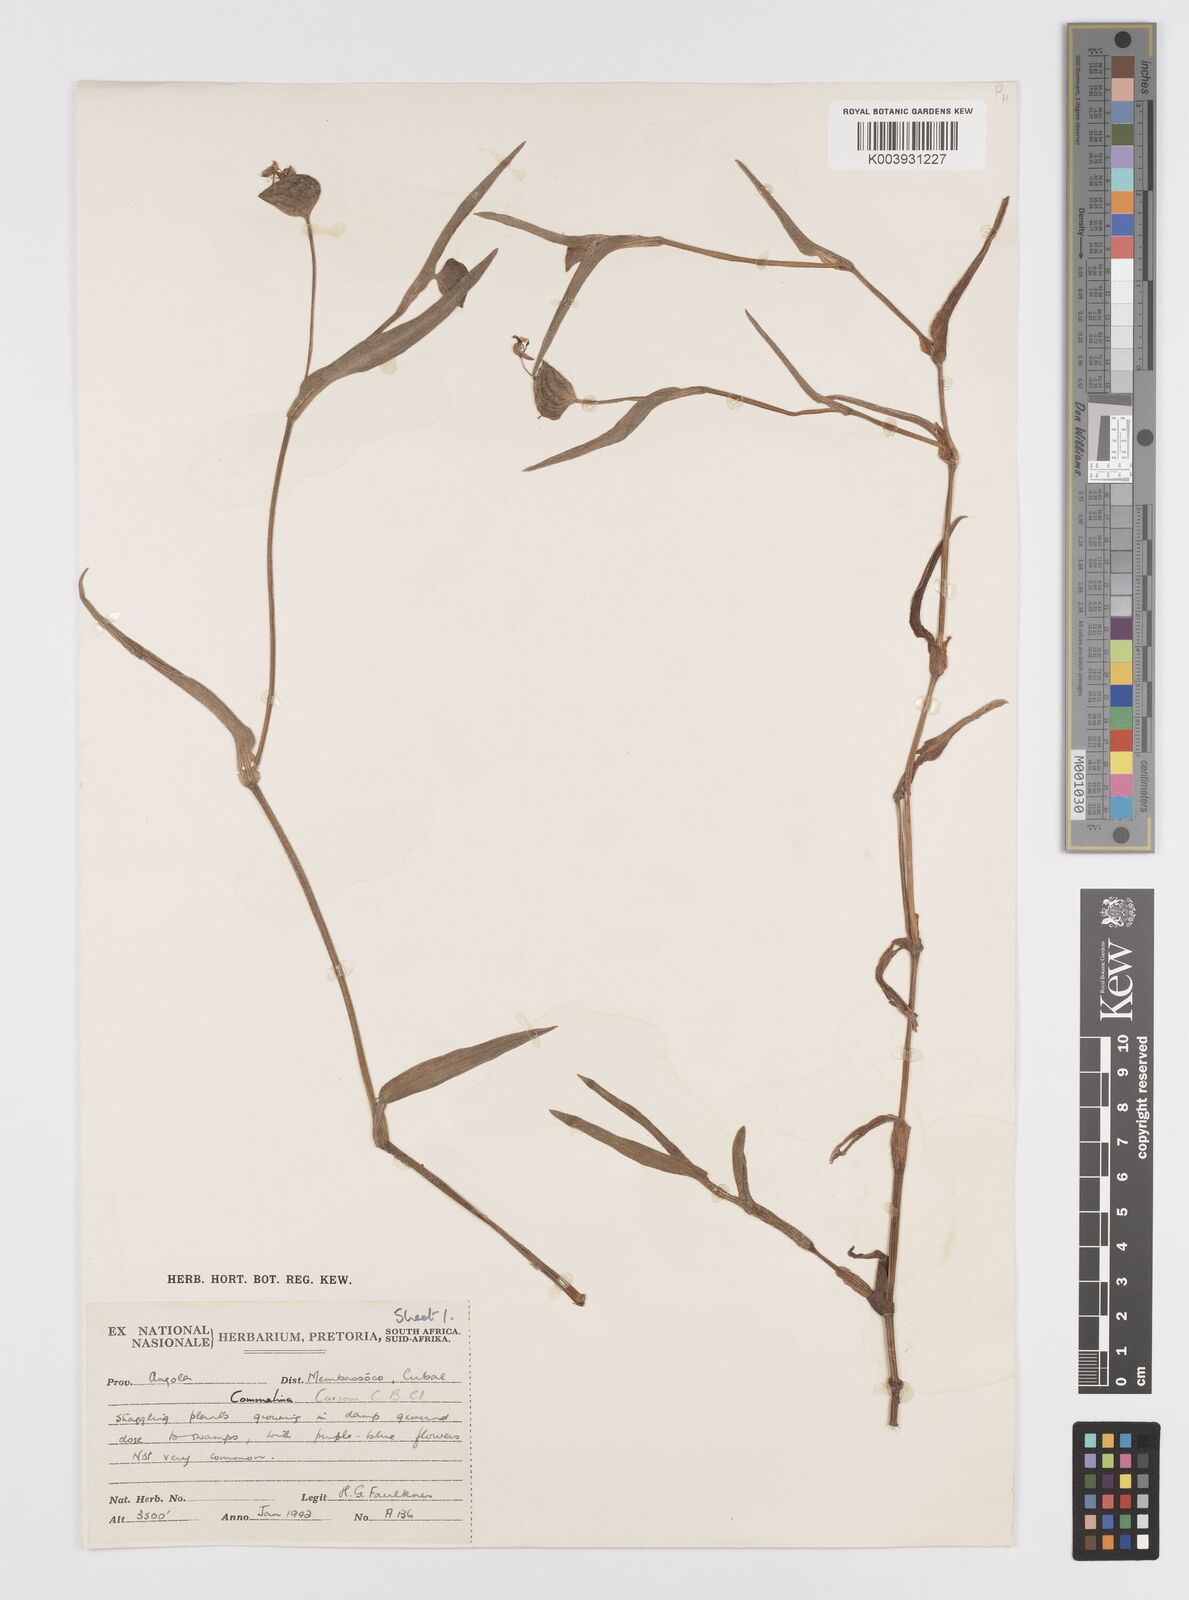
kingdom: Plantae
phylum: Tracheophyta
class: Liliopsida
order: Commelinales
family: Commelinaceae
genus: Commelina
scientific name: Commelina bequaertii
